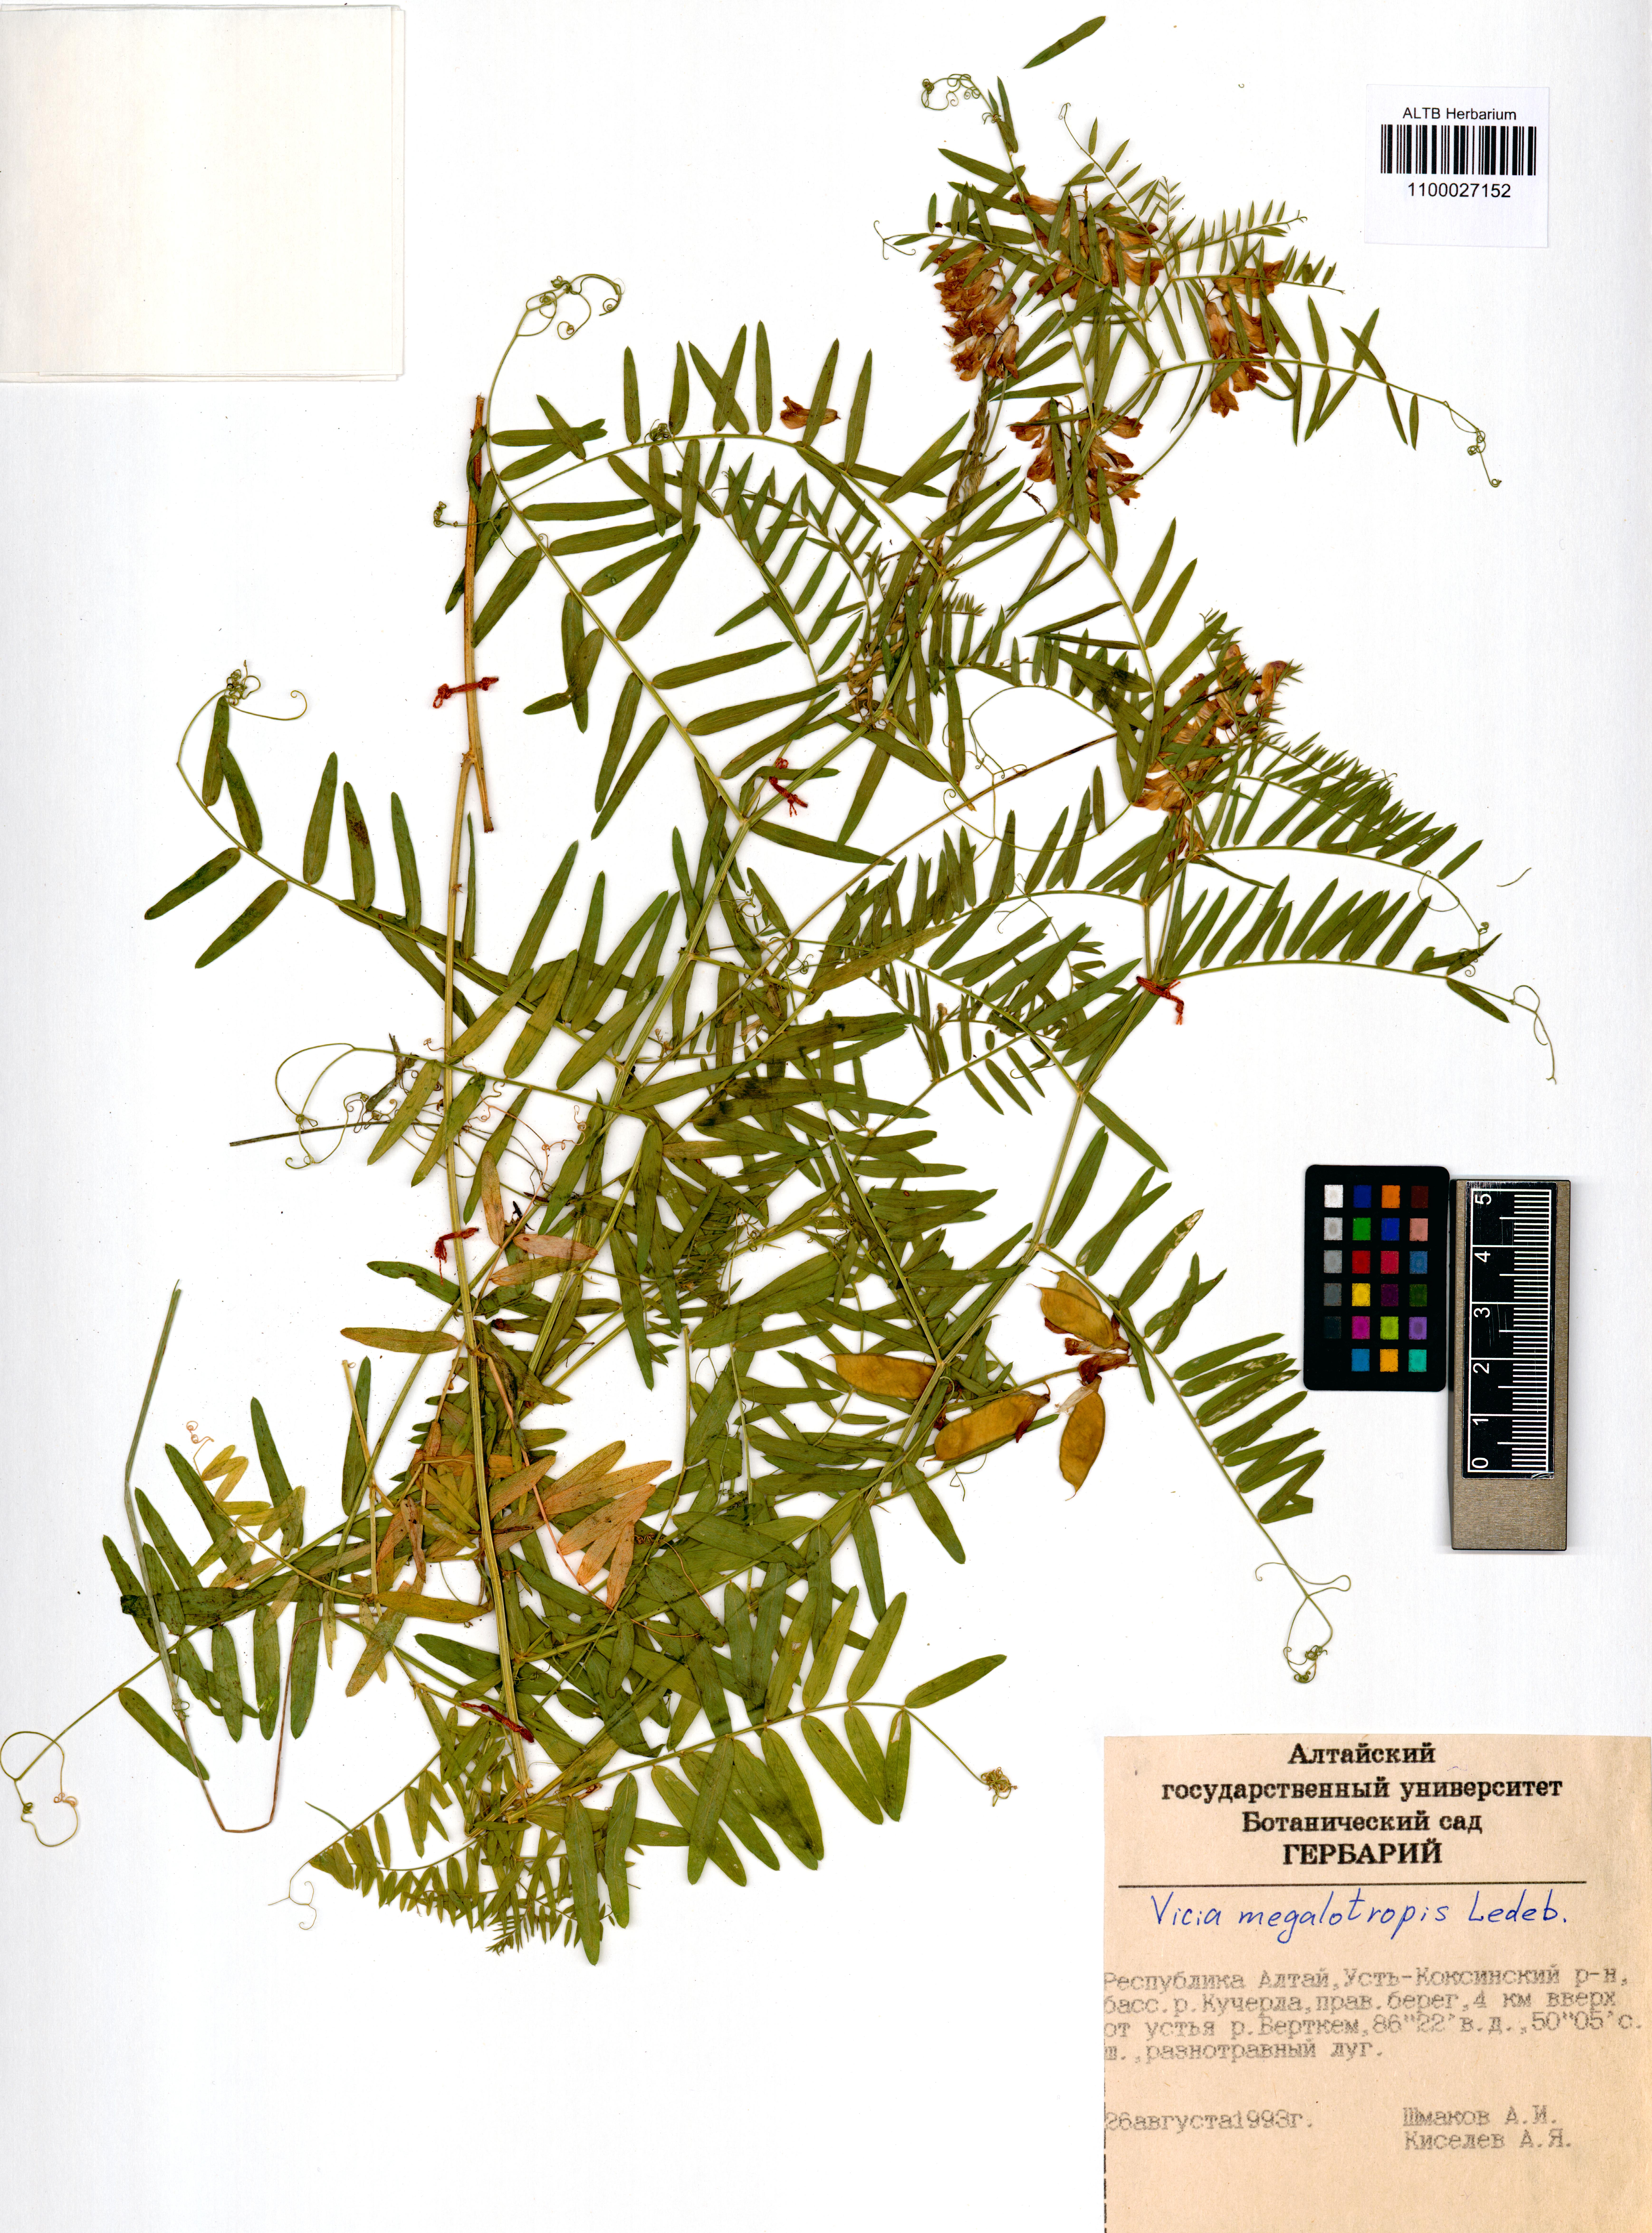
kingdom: Plantae
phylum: Tracheophyta
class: Magnoliopsida
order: Fabales
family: Fabaceae
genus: Vicia
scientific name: Vicia megalotropis
